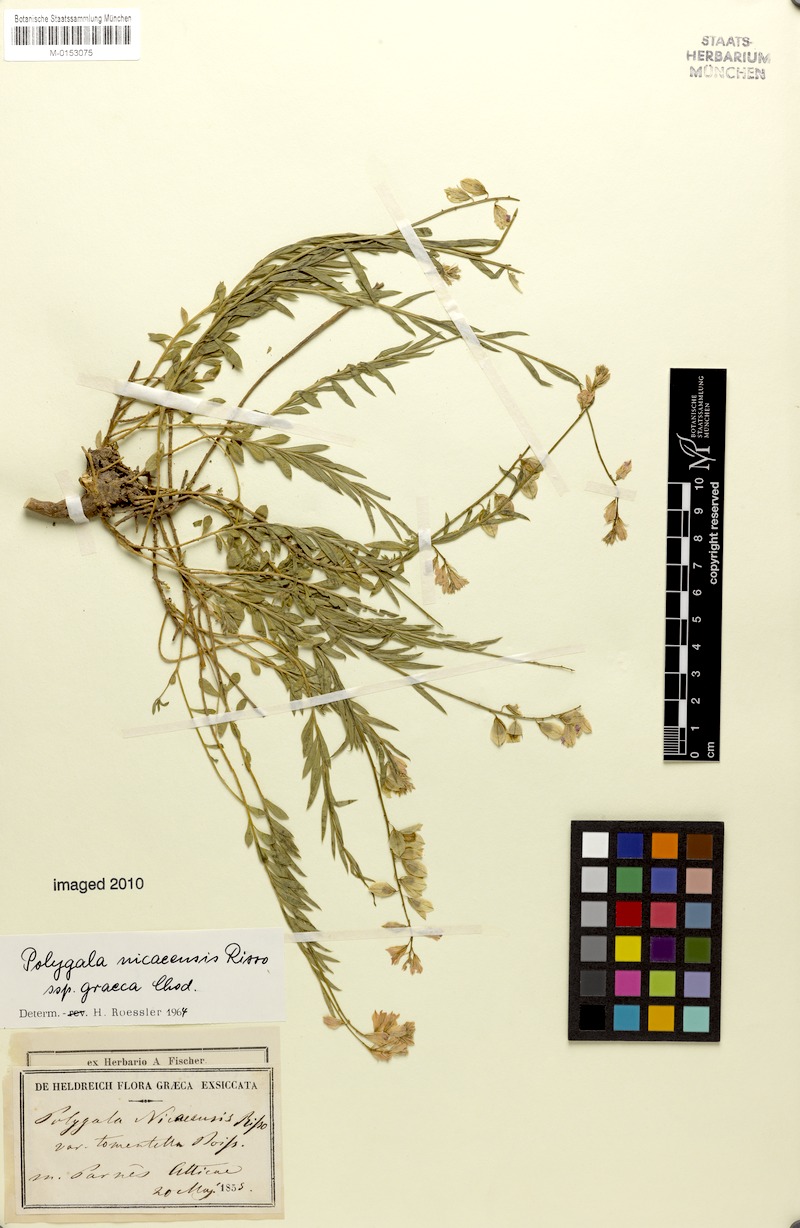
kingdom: Plantae
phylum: Tracheophyta
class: Magnoliopsida
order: Fabales
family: Polygalaceae
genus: Polygala
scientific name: Polygala nicaeensis
